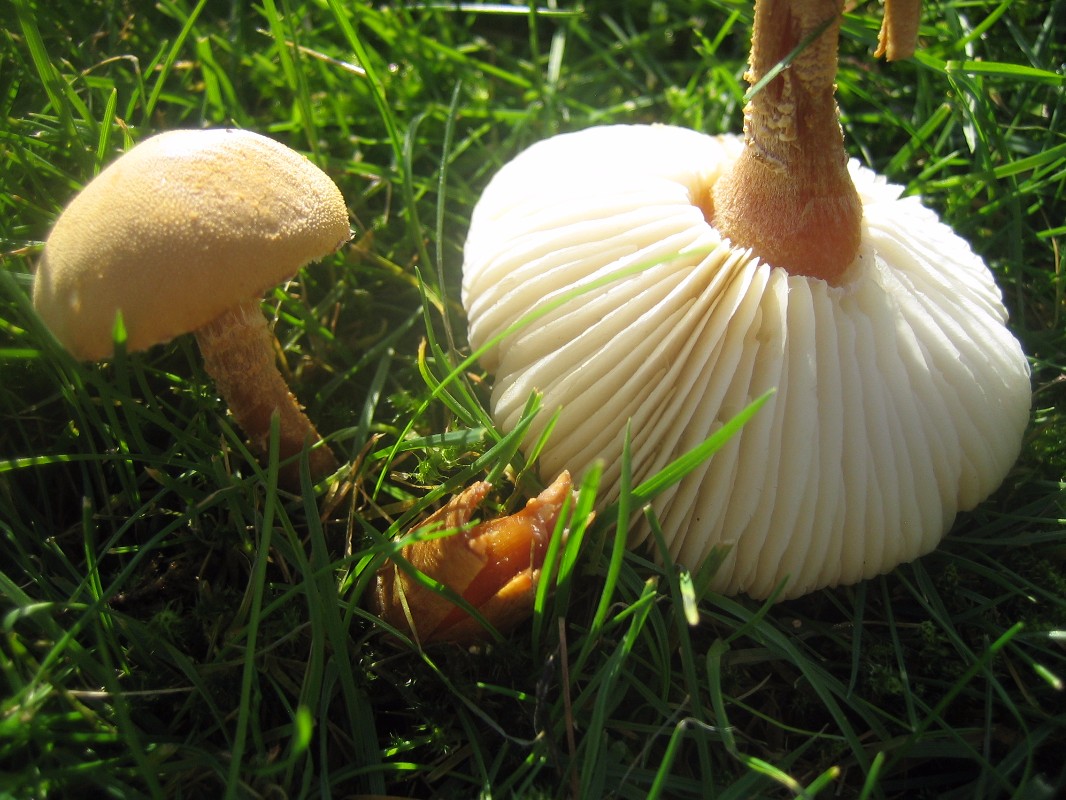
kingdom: Fungi
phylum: Basidiomycota
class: Agaricomycetes
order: Agaricales
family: Tricholomataceae
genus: Cystoderma
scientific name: Cystoderma amianthinum
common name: okkergul grynhat
